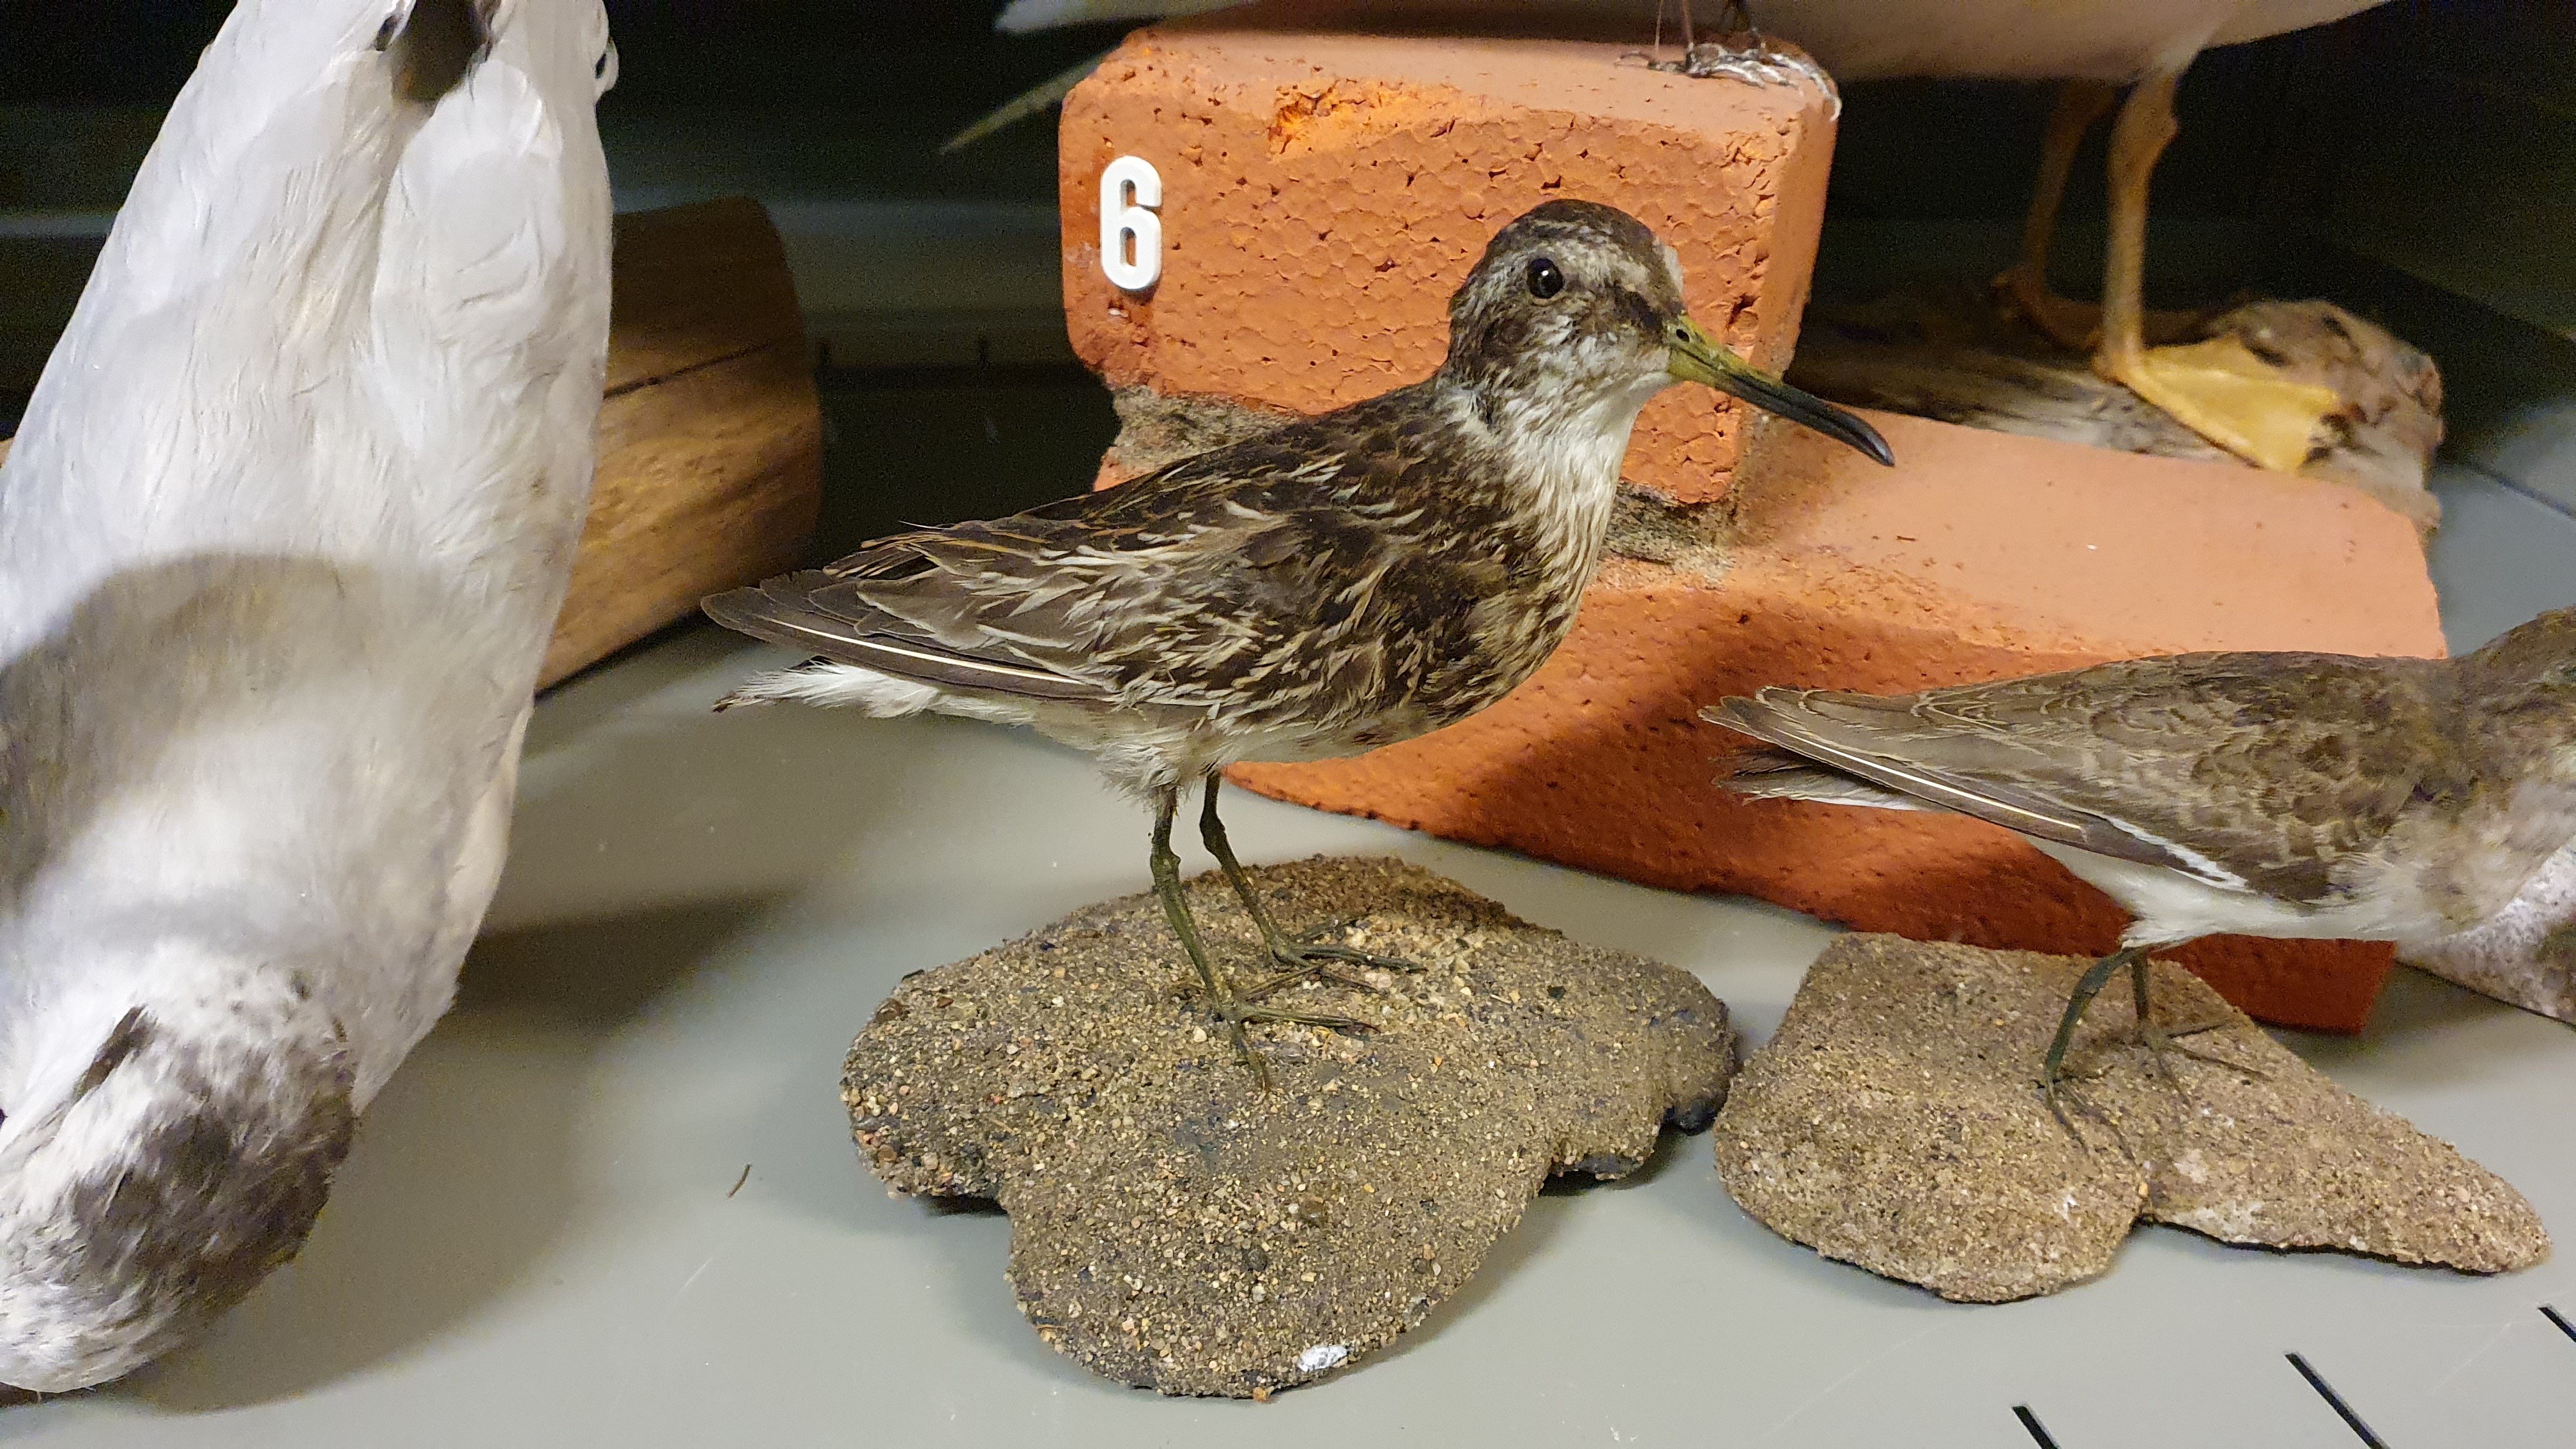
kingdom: Animalia
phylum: Chordata
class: Aves
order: Charadriiformes
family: Scolopacidae
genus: Calidris
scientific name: Calidris falcinellus
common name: Broad-billed sandpiper
